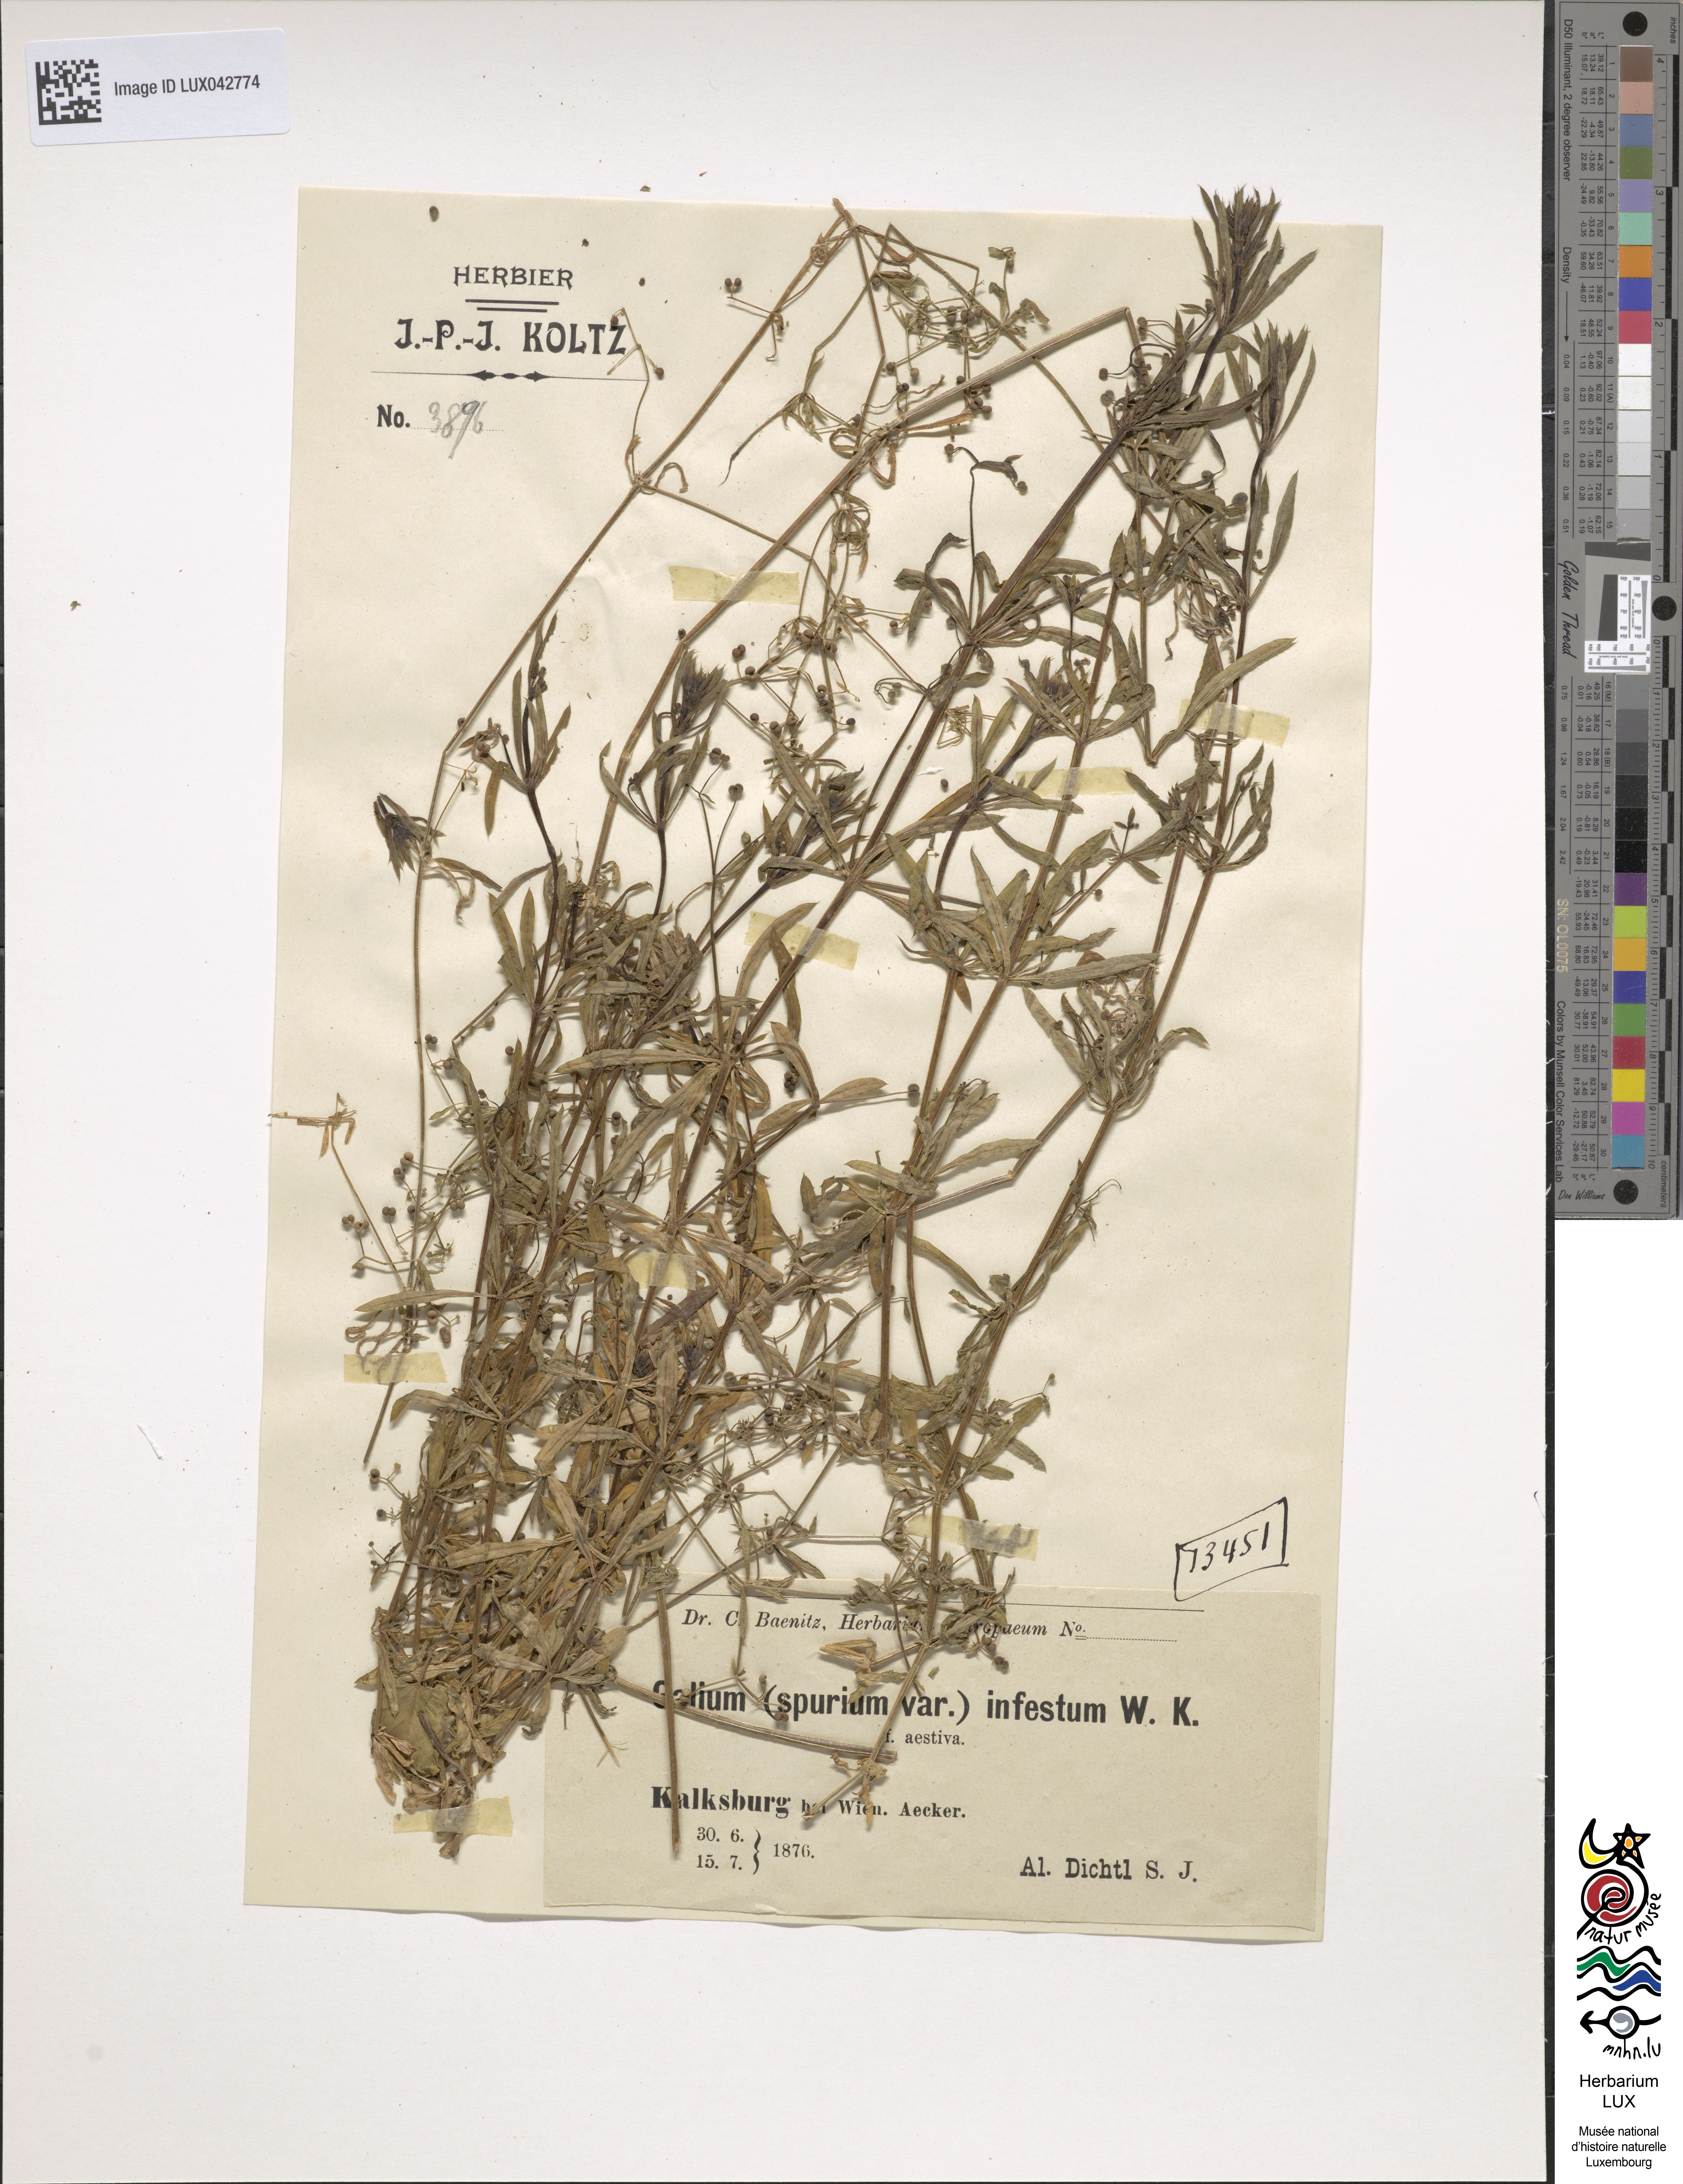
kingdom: Plantae
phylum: Tracheophyta
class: Magnoliopsida
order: Gentianales
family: Rubiaceae
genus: Galium
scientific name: Galium spurium
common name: False cleavers
